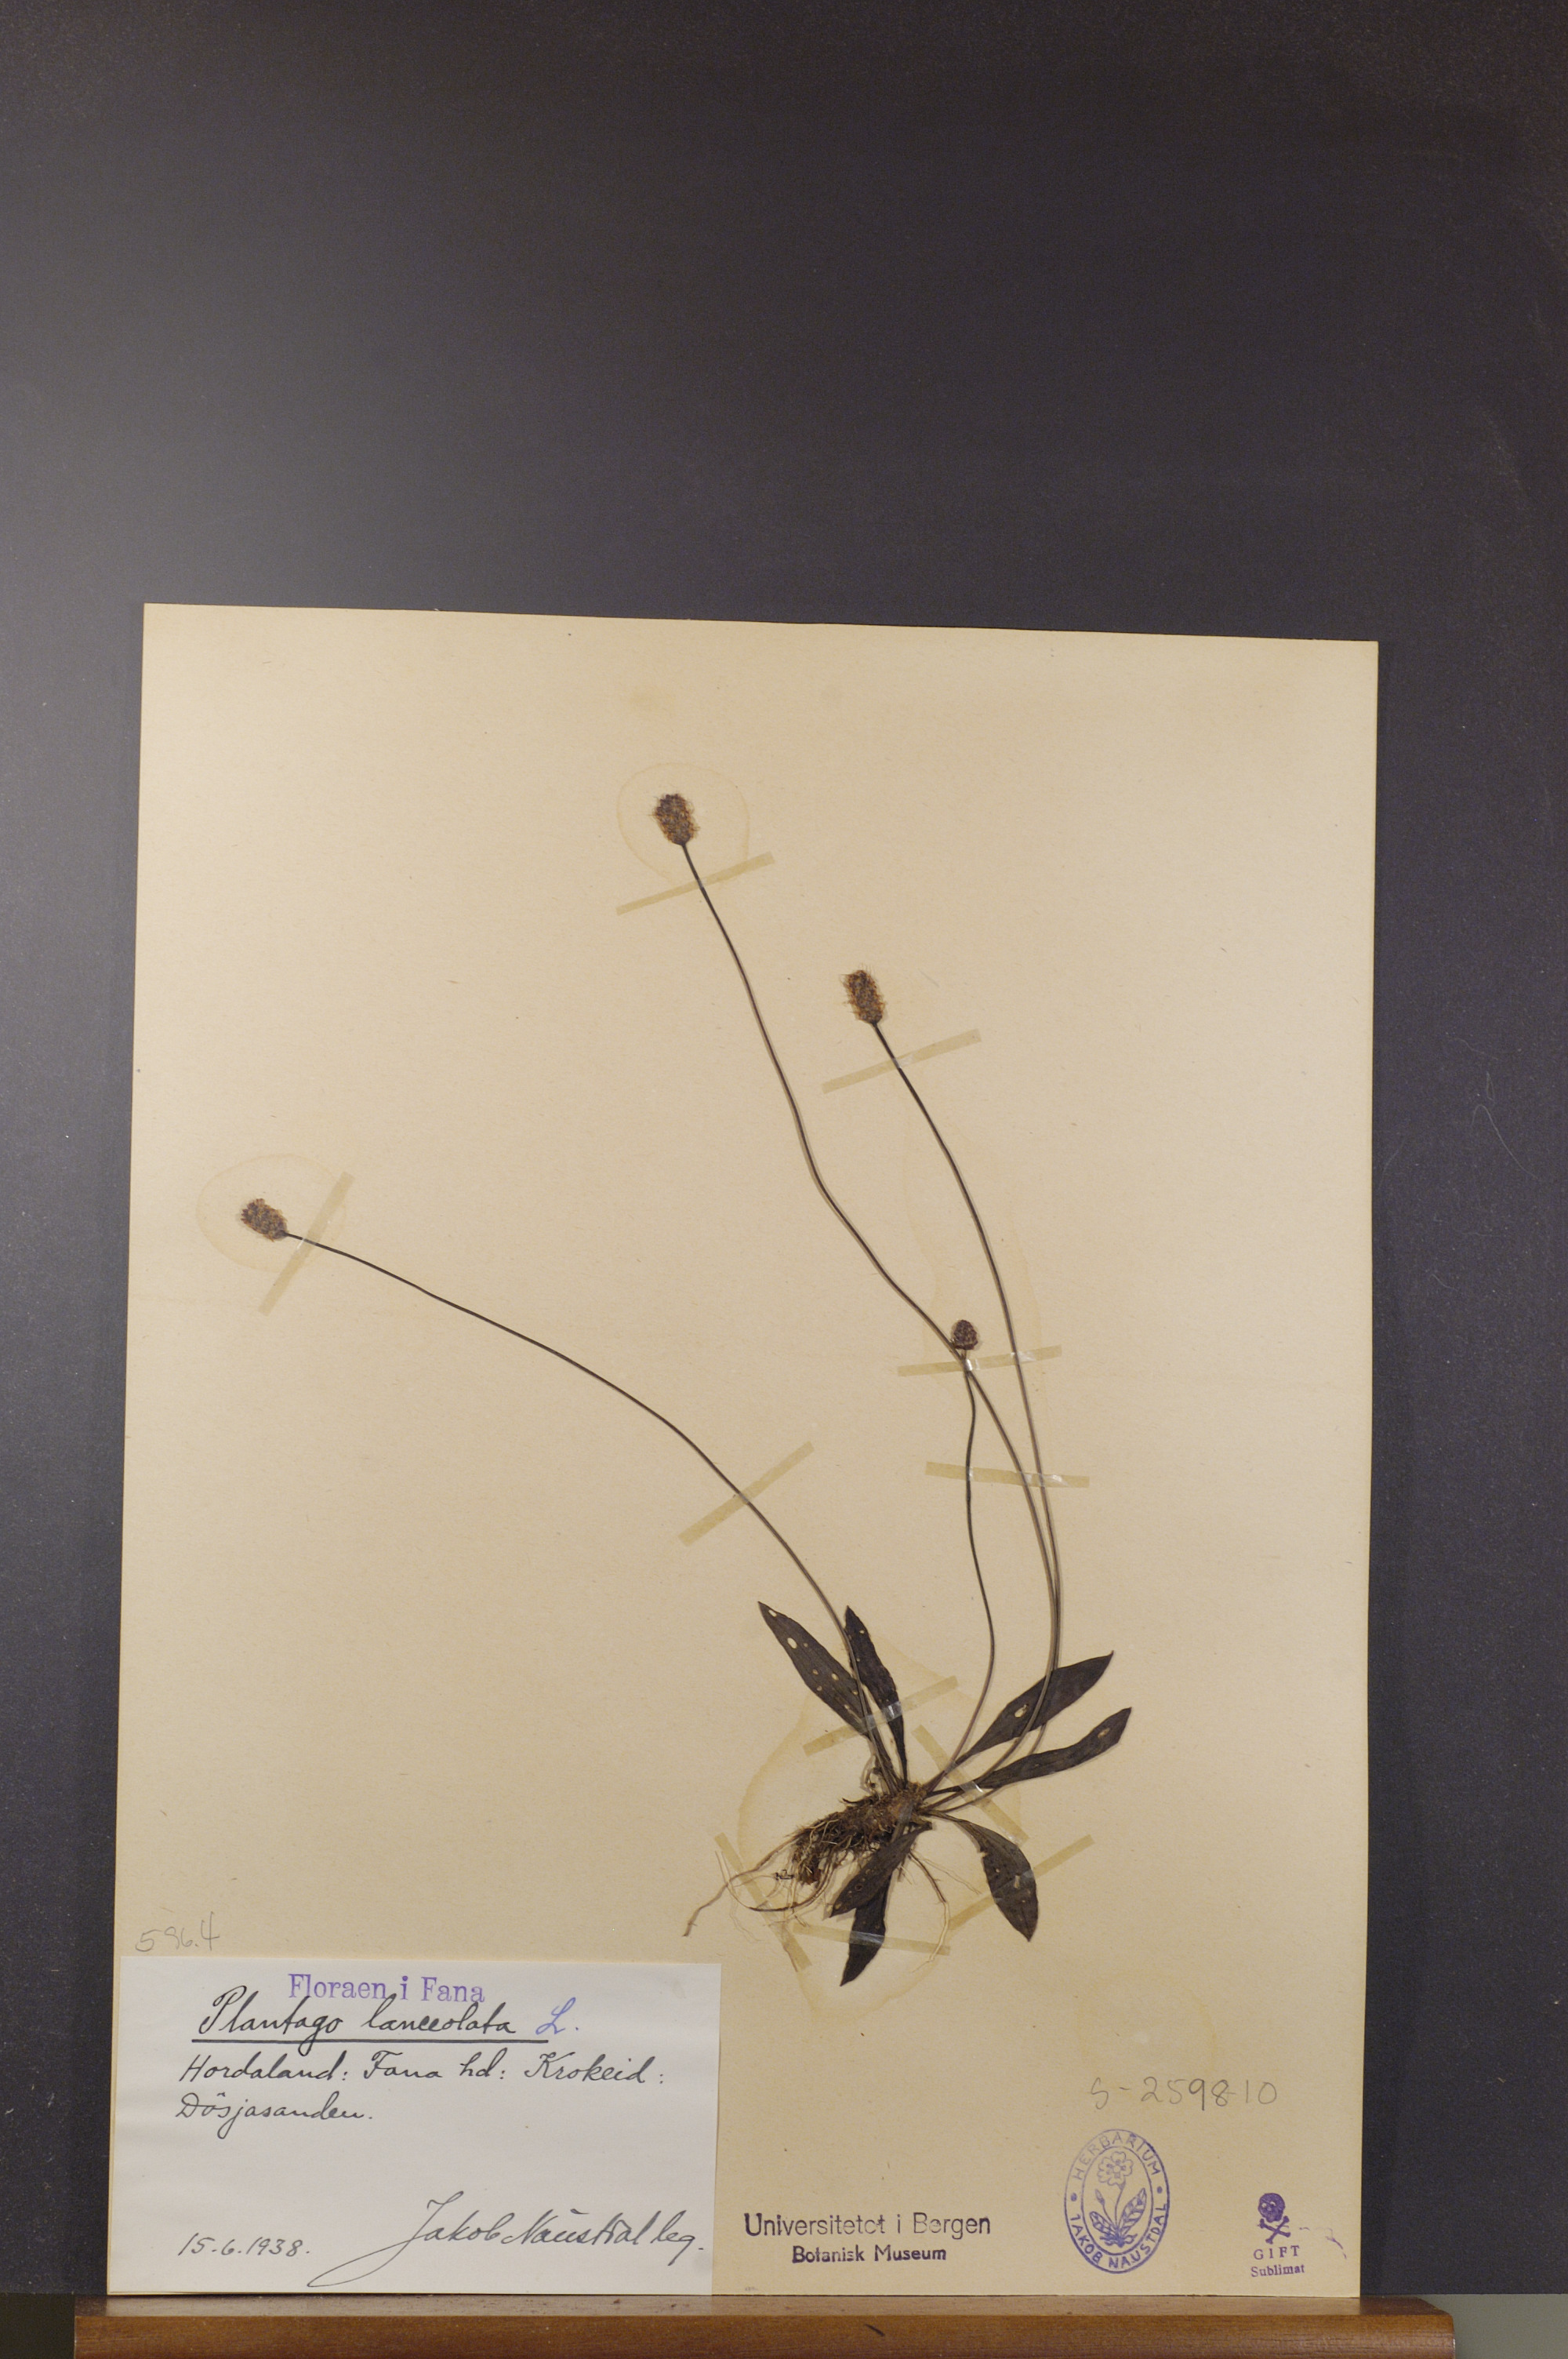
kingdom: Plantae
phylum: Tracheophyta
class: Magnoliopsida
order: Lamiales
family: Plantaginaceae
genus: Plantago
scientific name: Plantago lanceolata
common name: Ribwort plantain
